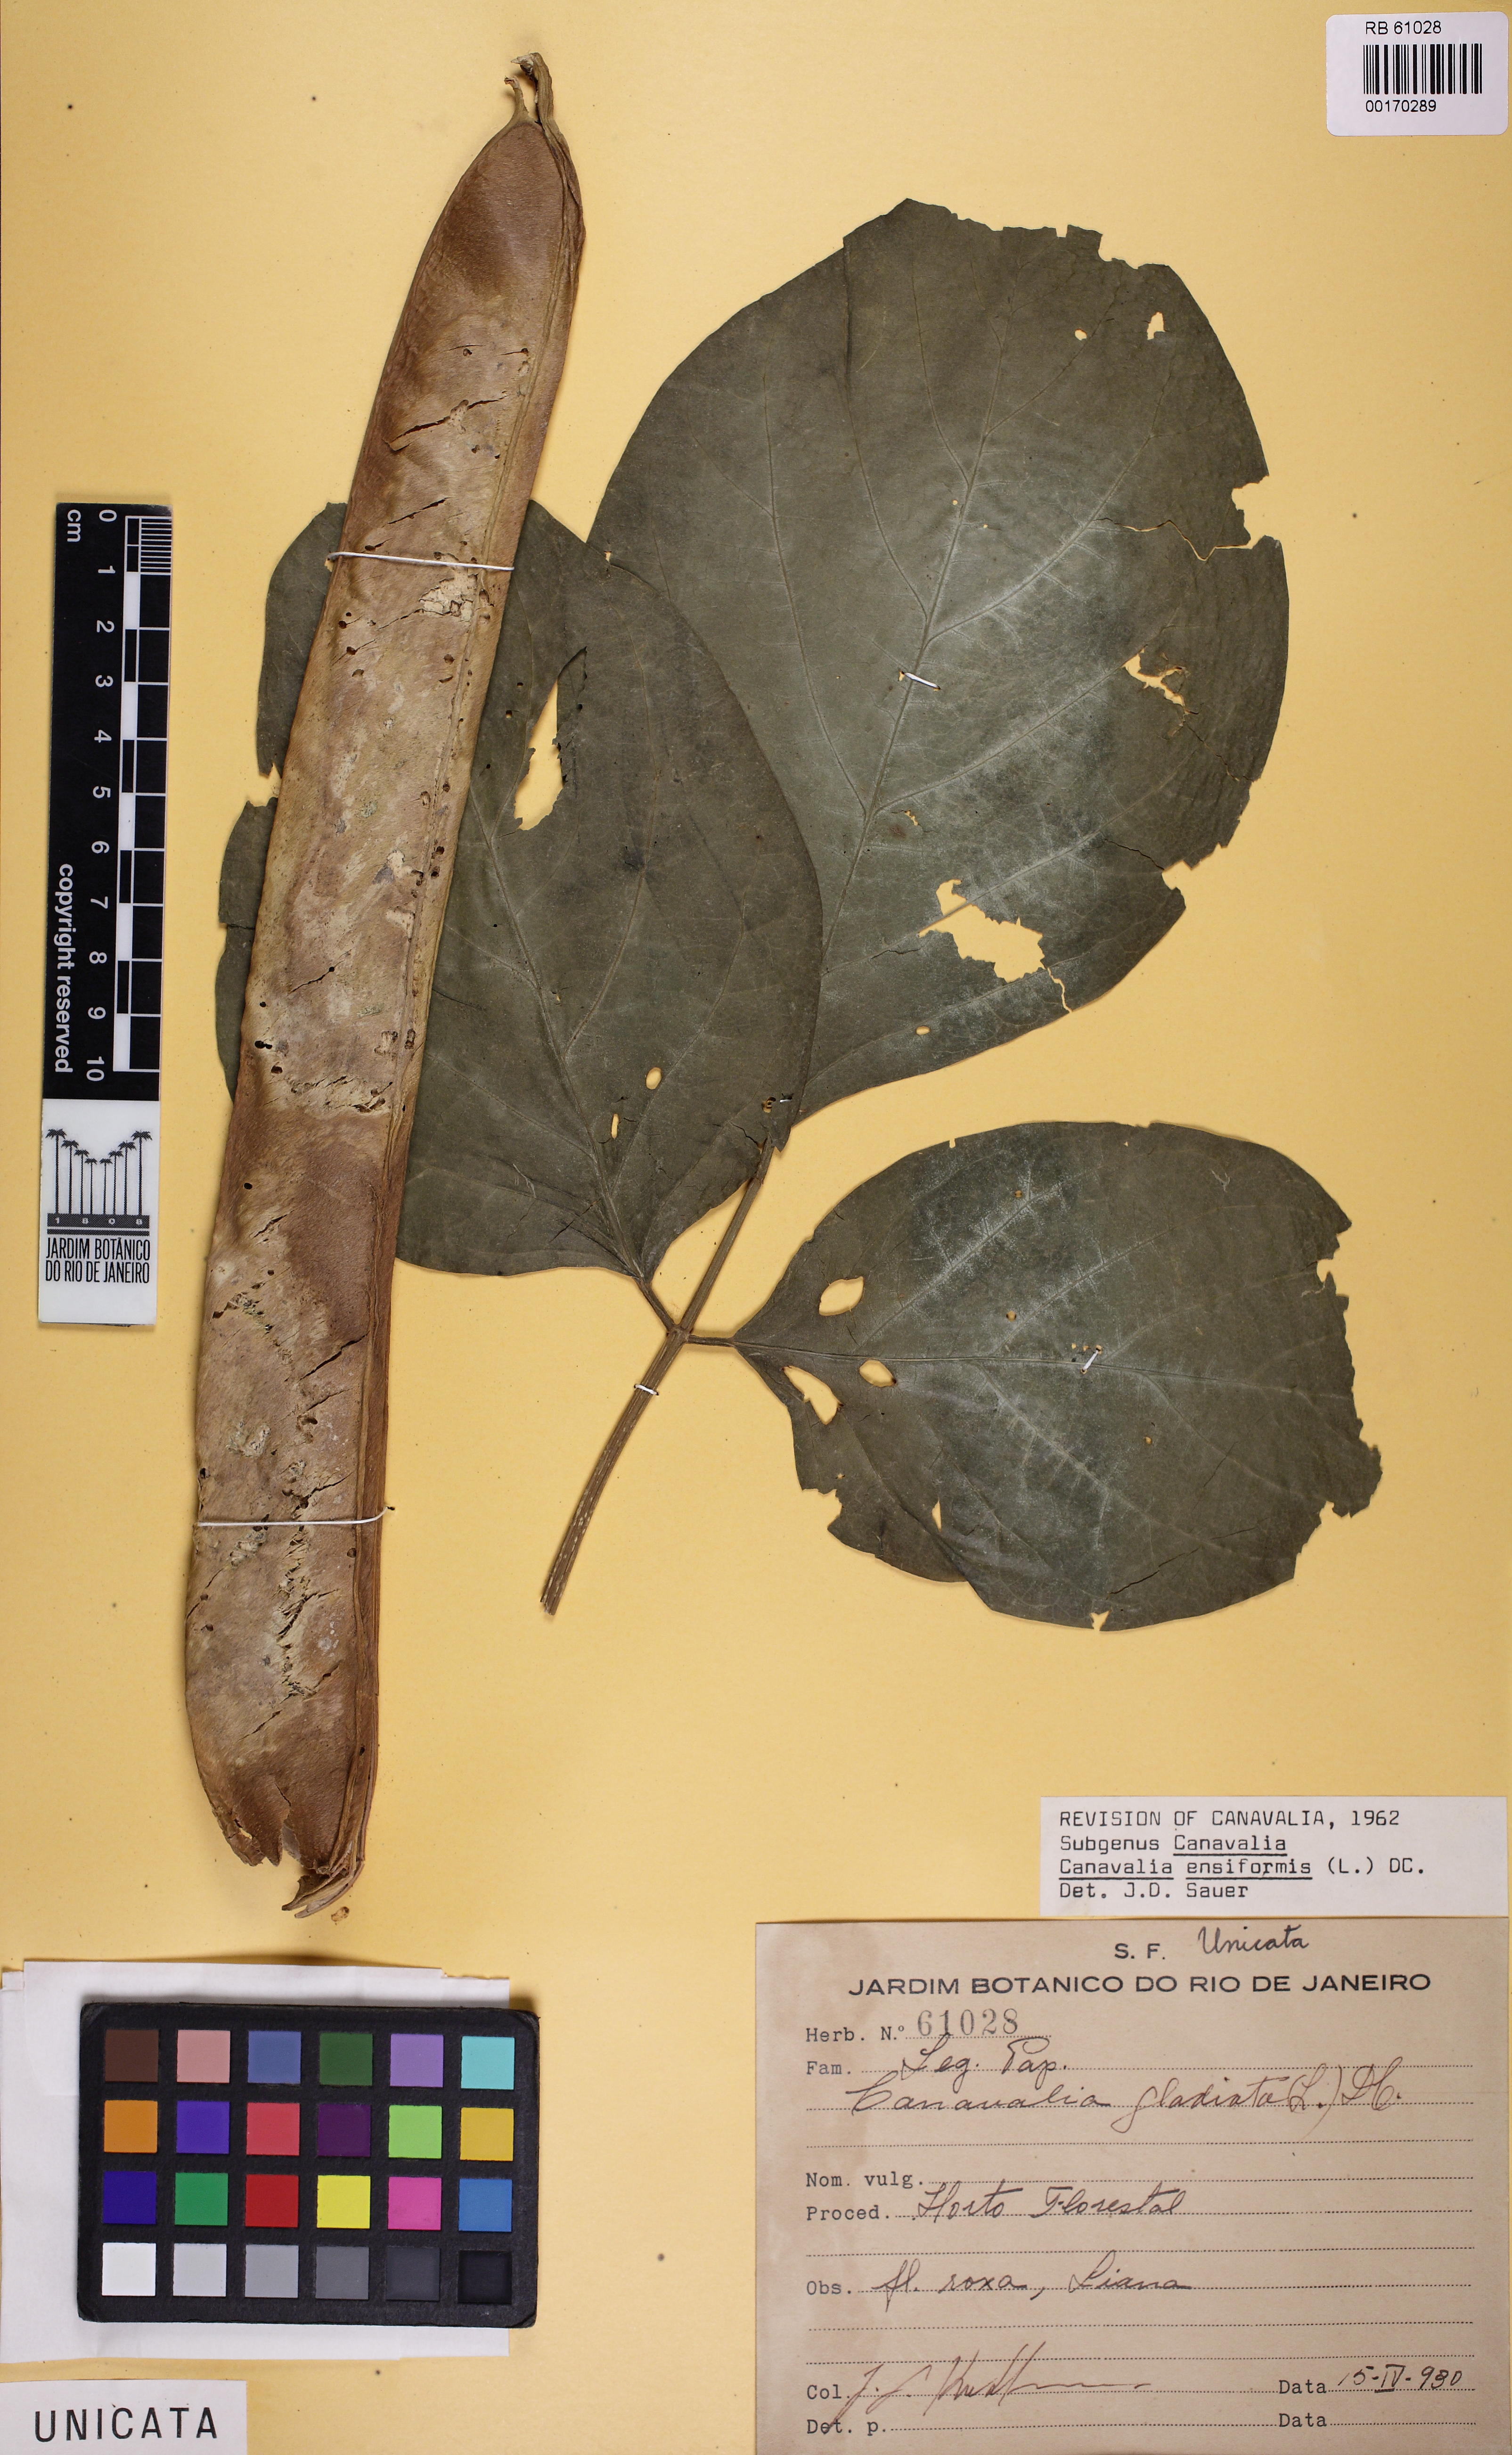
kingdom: Plantae
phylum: Tracheophyta
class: Magnoliopsida
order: Fabales
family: Fabaceae
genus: Canavalia
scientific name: Canavalia ensiformis
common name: Jack bean
